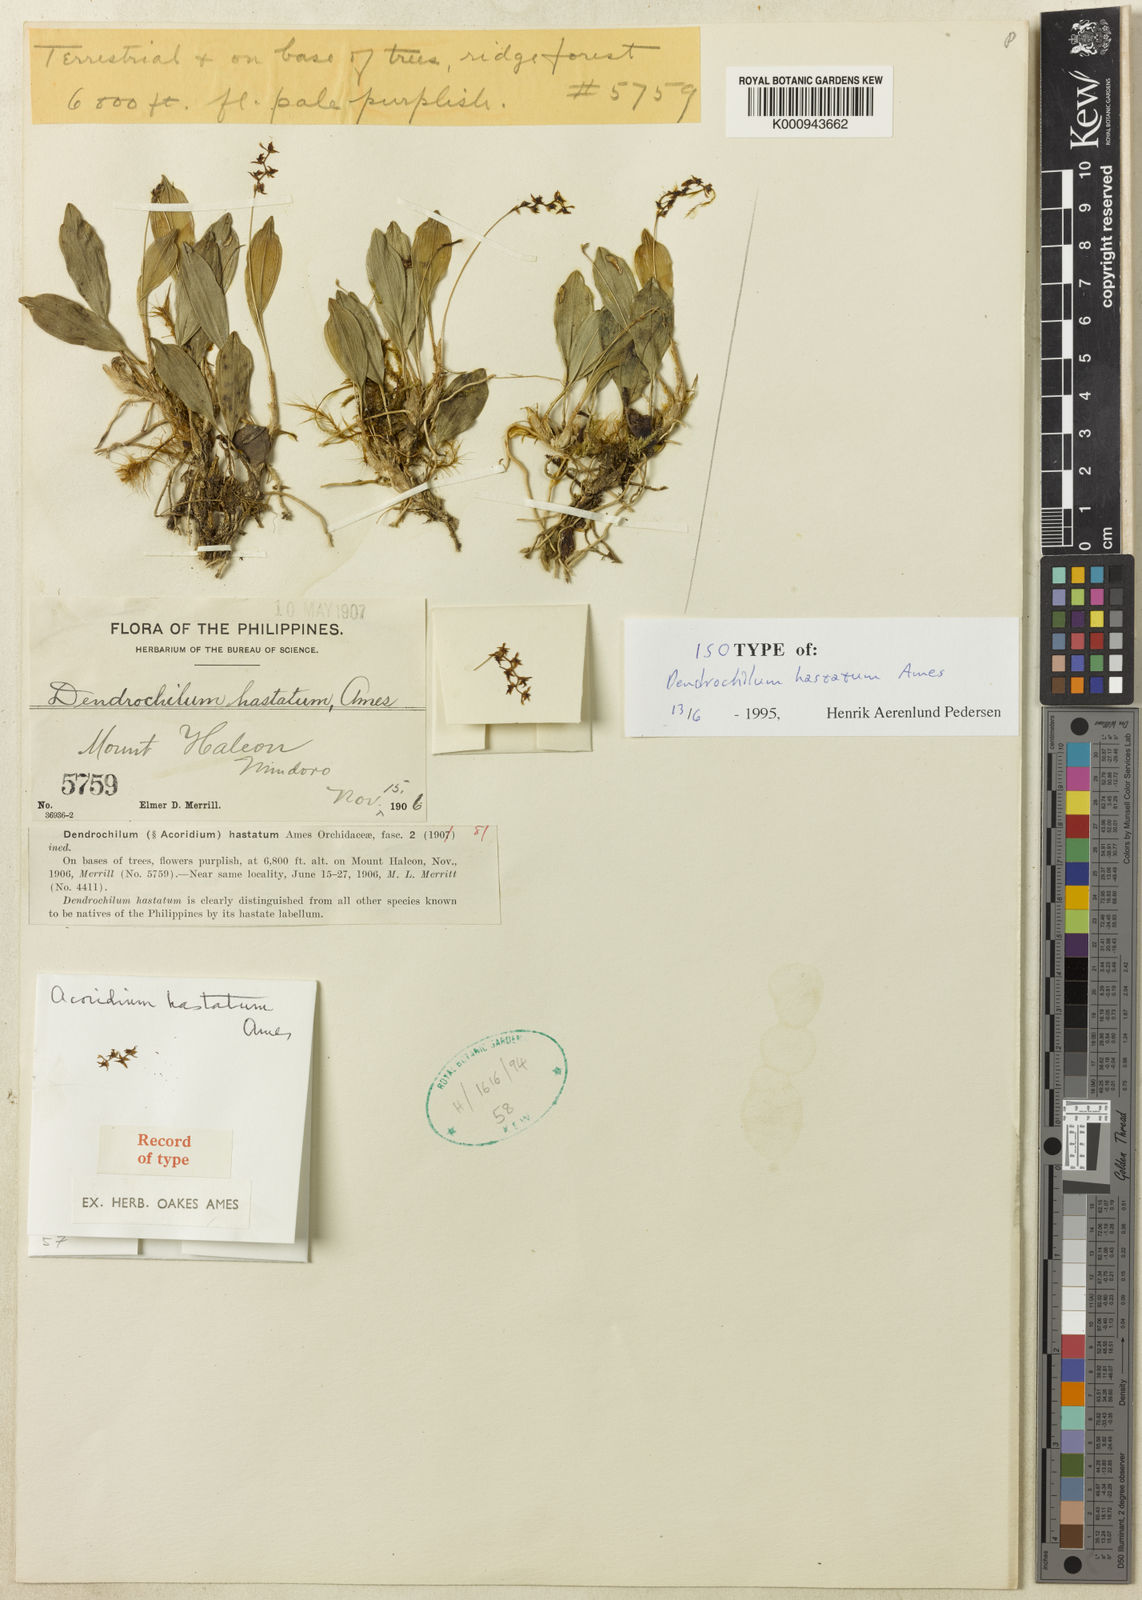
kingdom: Plantae
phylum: Tracheophyta
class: Liliopsida
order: Asparagales
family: Orchidaceae
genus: Coelogyne
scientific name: Coelogyne hastata
